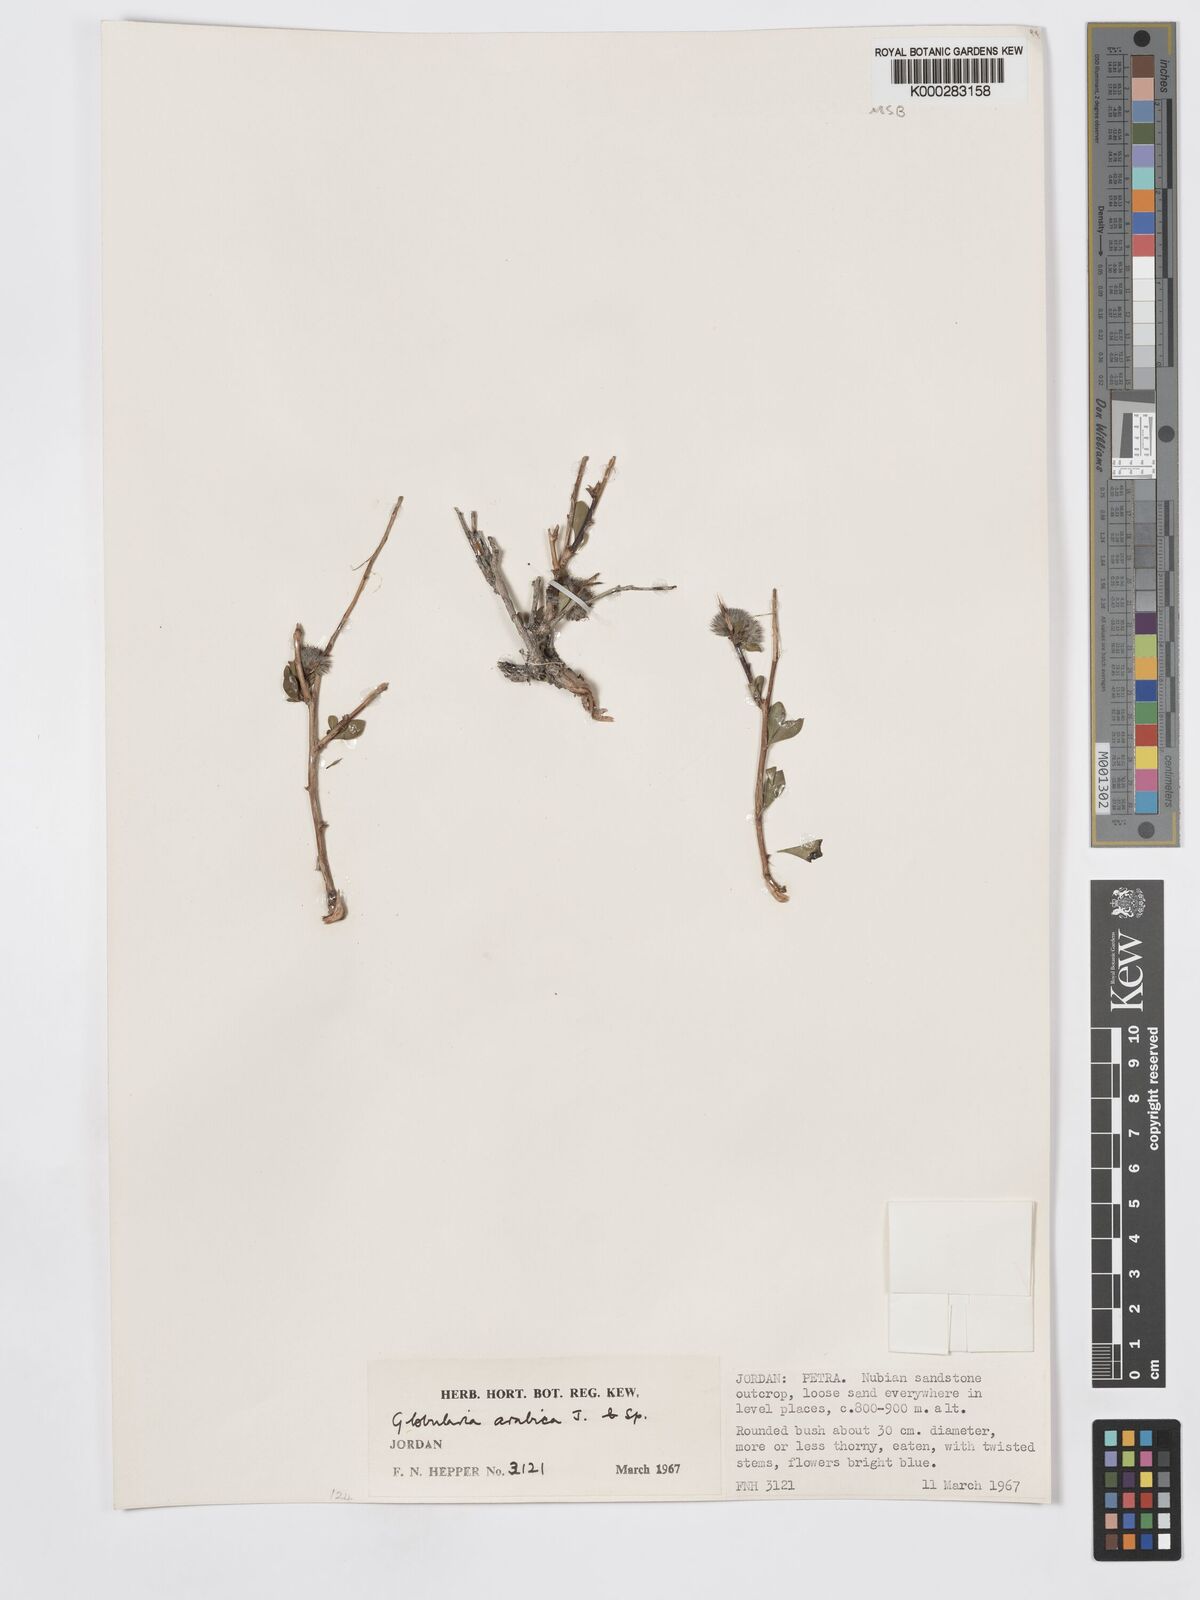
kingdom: Plantae
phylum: Tracheophyta
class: Magnoliopsida
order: Lamiales
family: Plantaginaceae
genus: Globularia
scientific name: Globularia arabica
